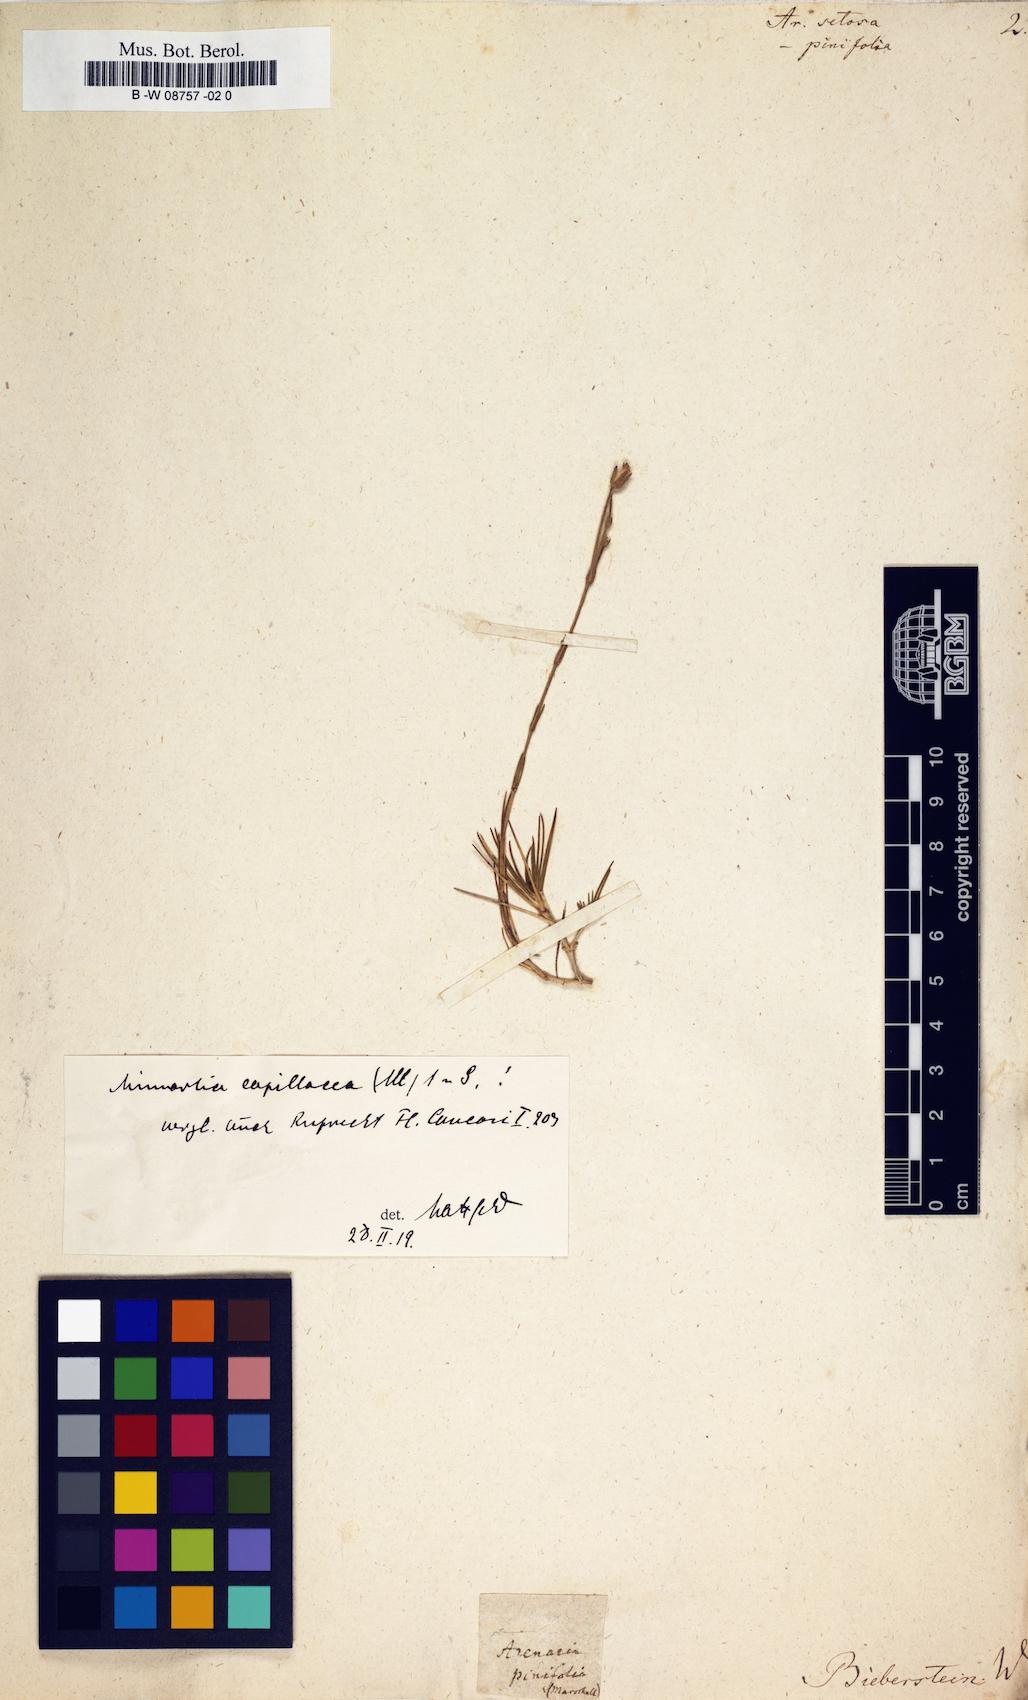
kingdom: Plantae
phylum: Tracheophyta
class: Magnoliopsida
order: Caryophyllales
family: Caryophyllaceae
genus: Eremogone
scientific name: Eremogone capillaris
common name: Slender mountain sandwort
